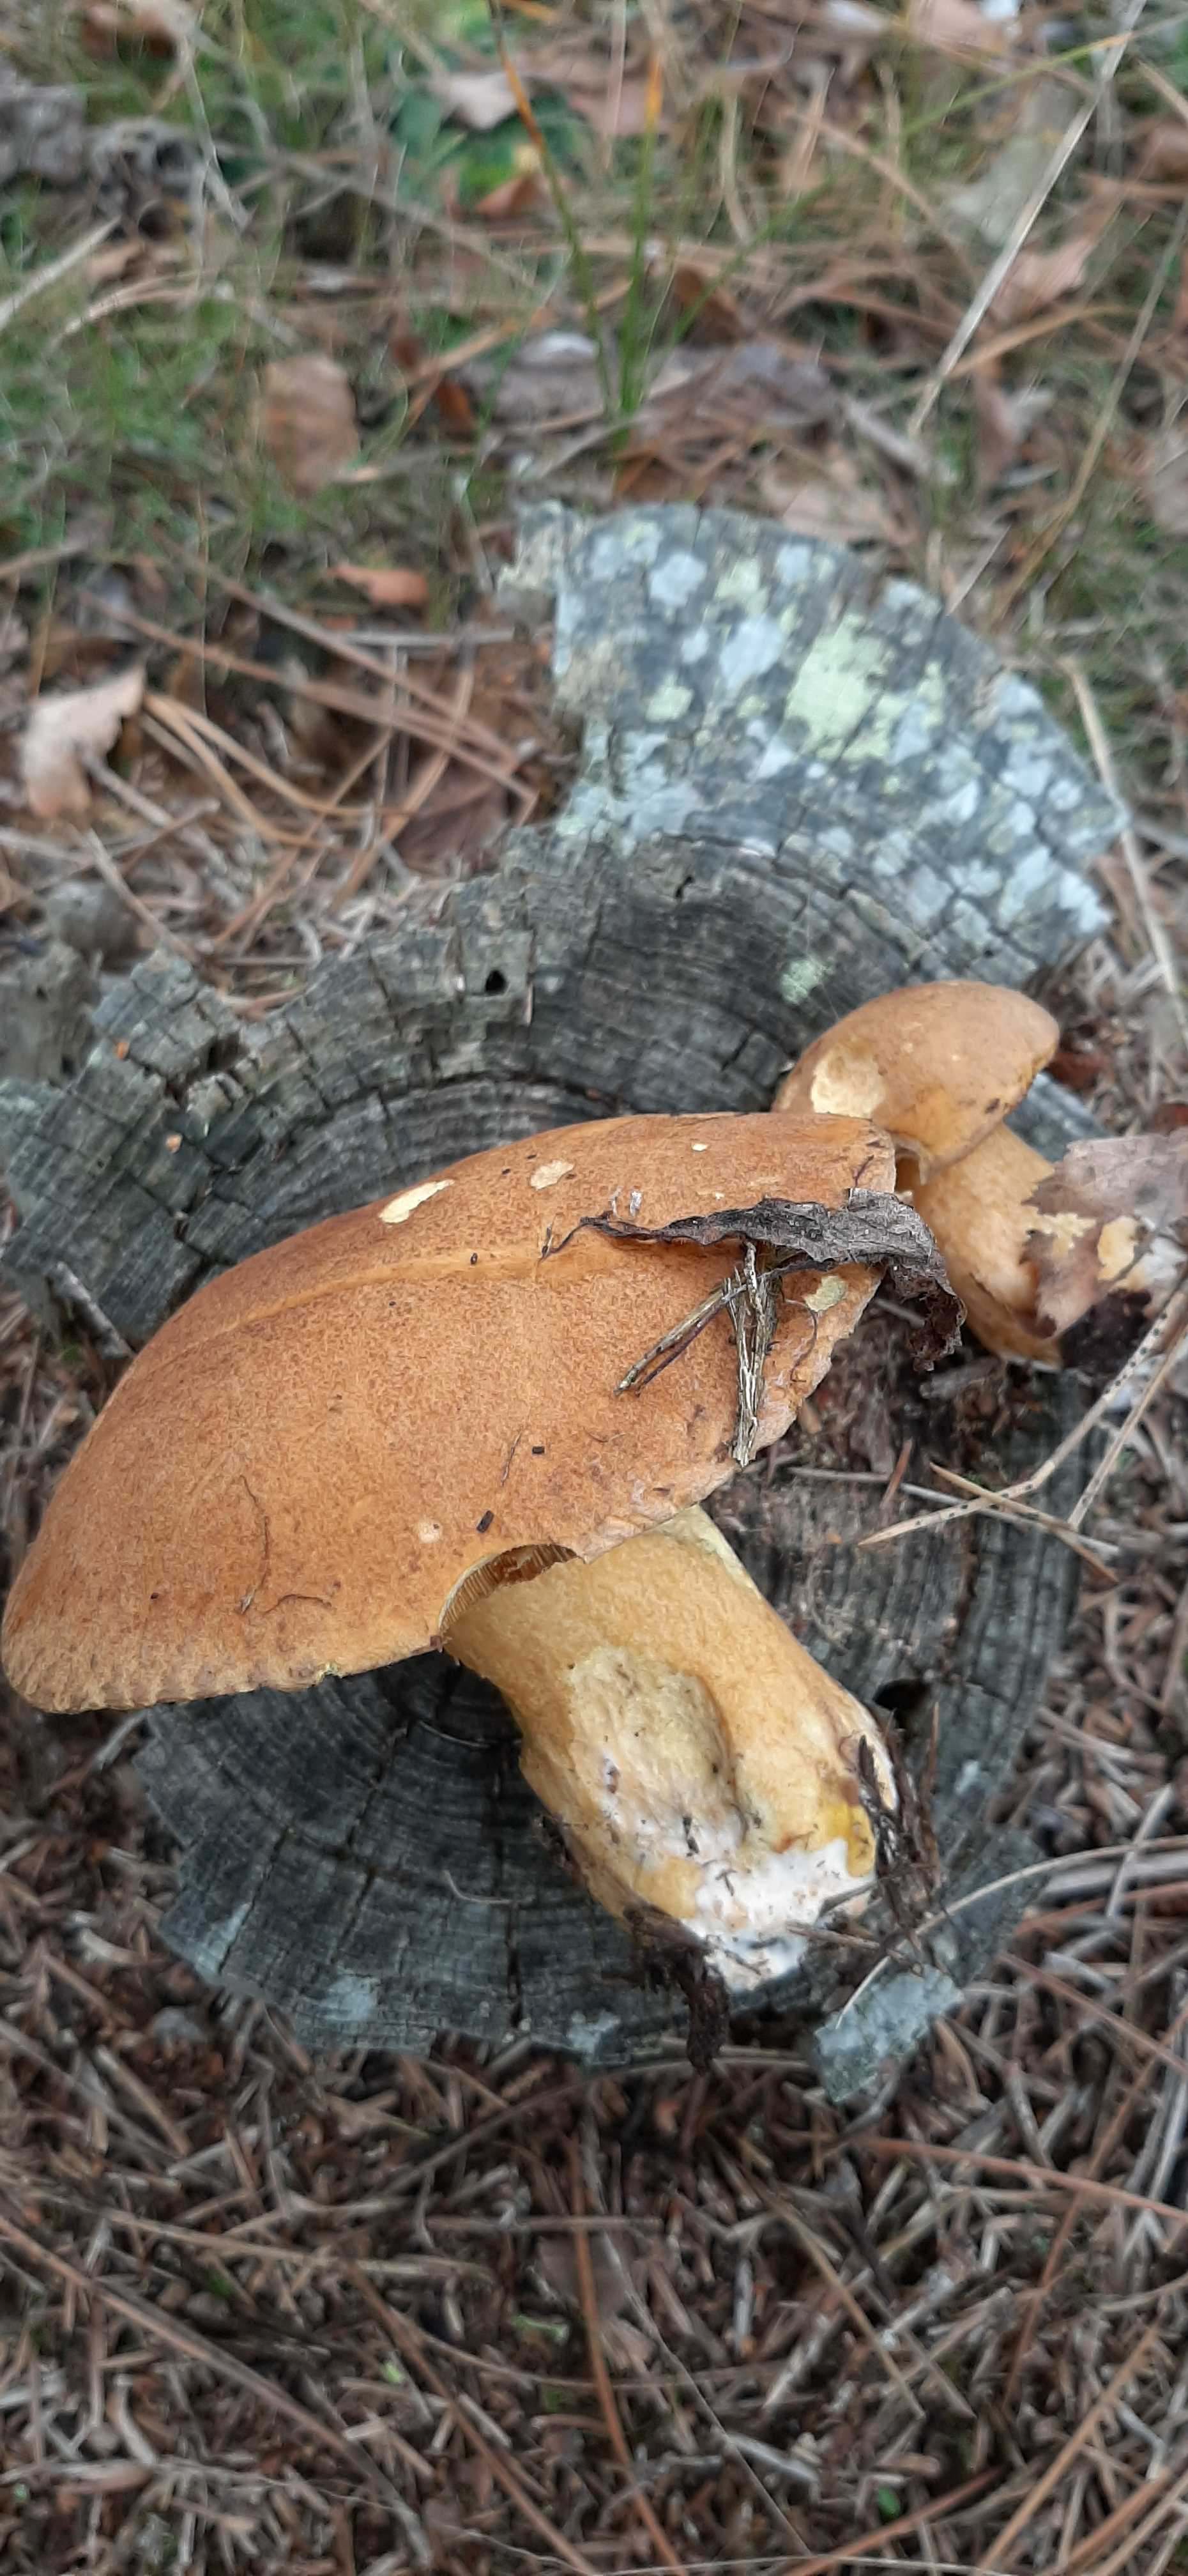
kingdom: Fungi
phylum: Basidiomycota
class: Agaricomycetes
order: Boletales
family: Suillaceae
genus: Suillus
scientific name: Suillus variegatus
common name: broget slimrørhat
